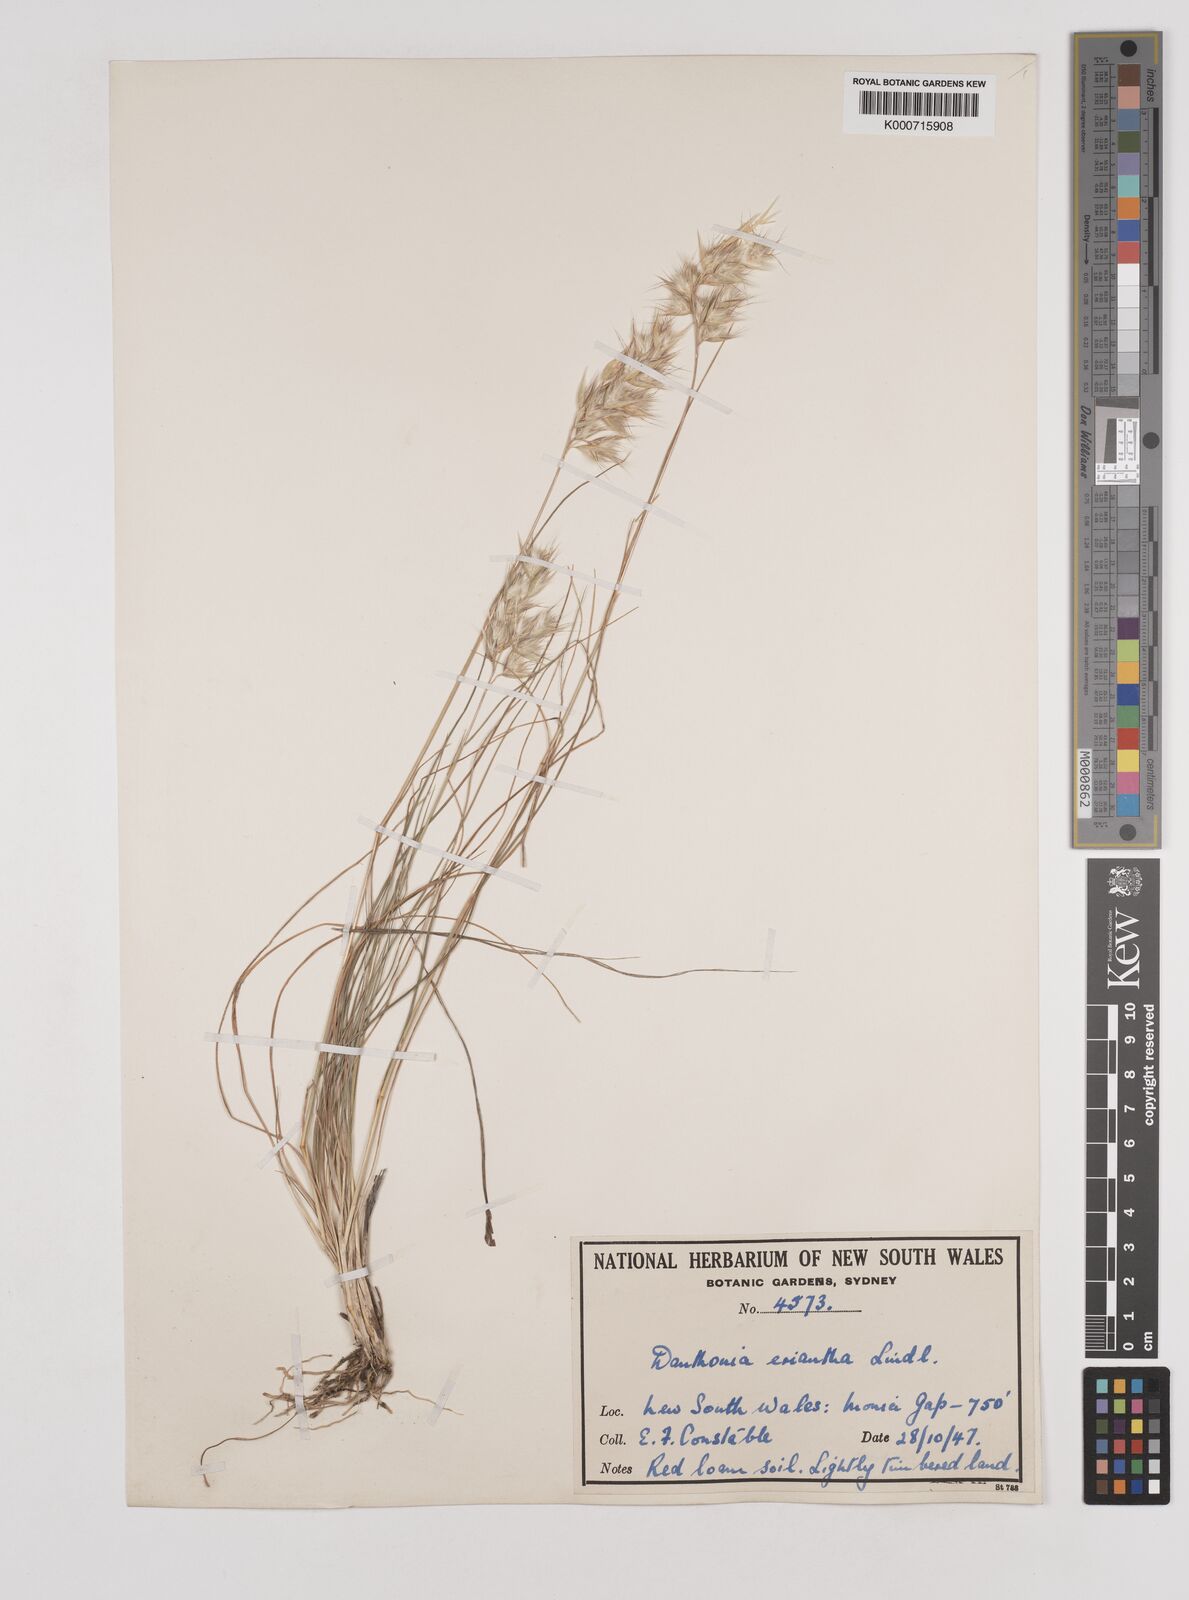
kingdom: Plantae
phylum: Tracheophyta
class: Liliopsida
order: Poales
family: Poaceae
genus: Rytidosperma
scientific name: Rytidosperma erianthum
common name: Hill wallaby grass
